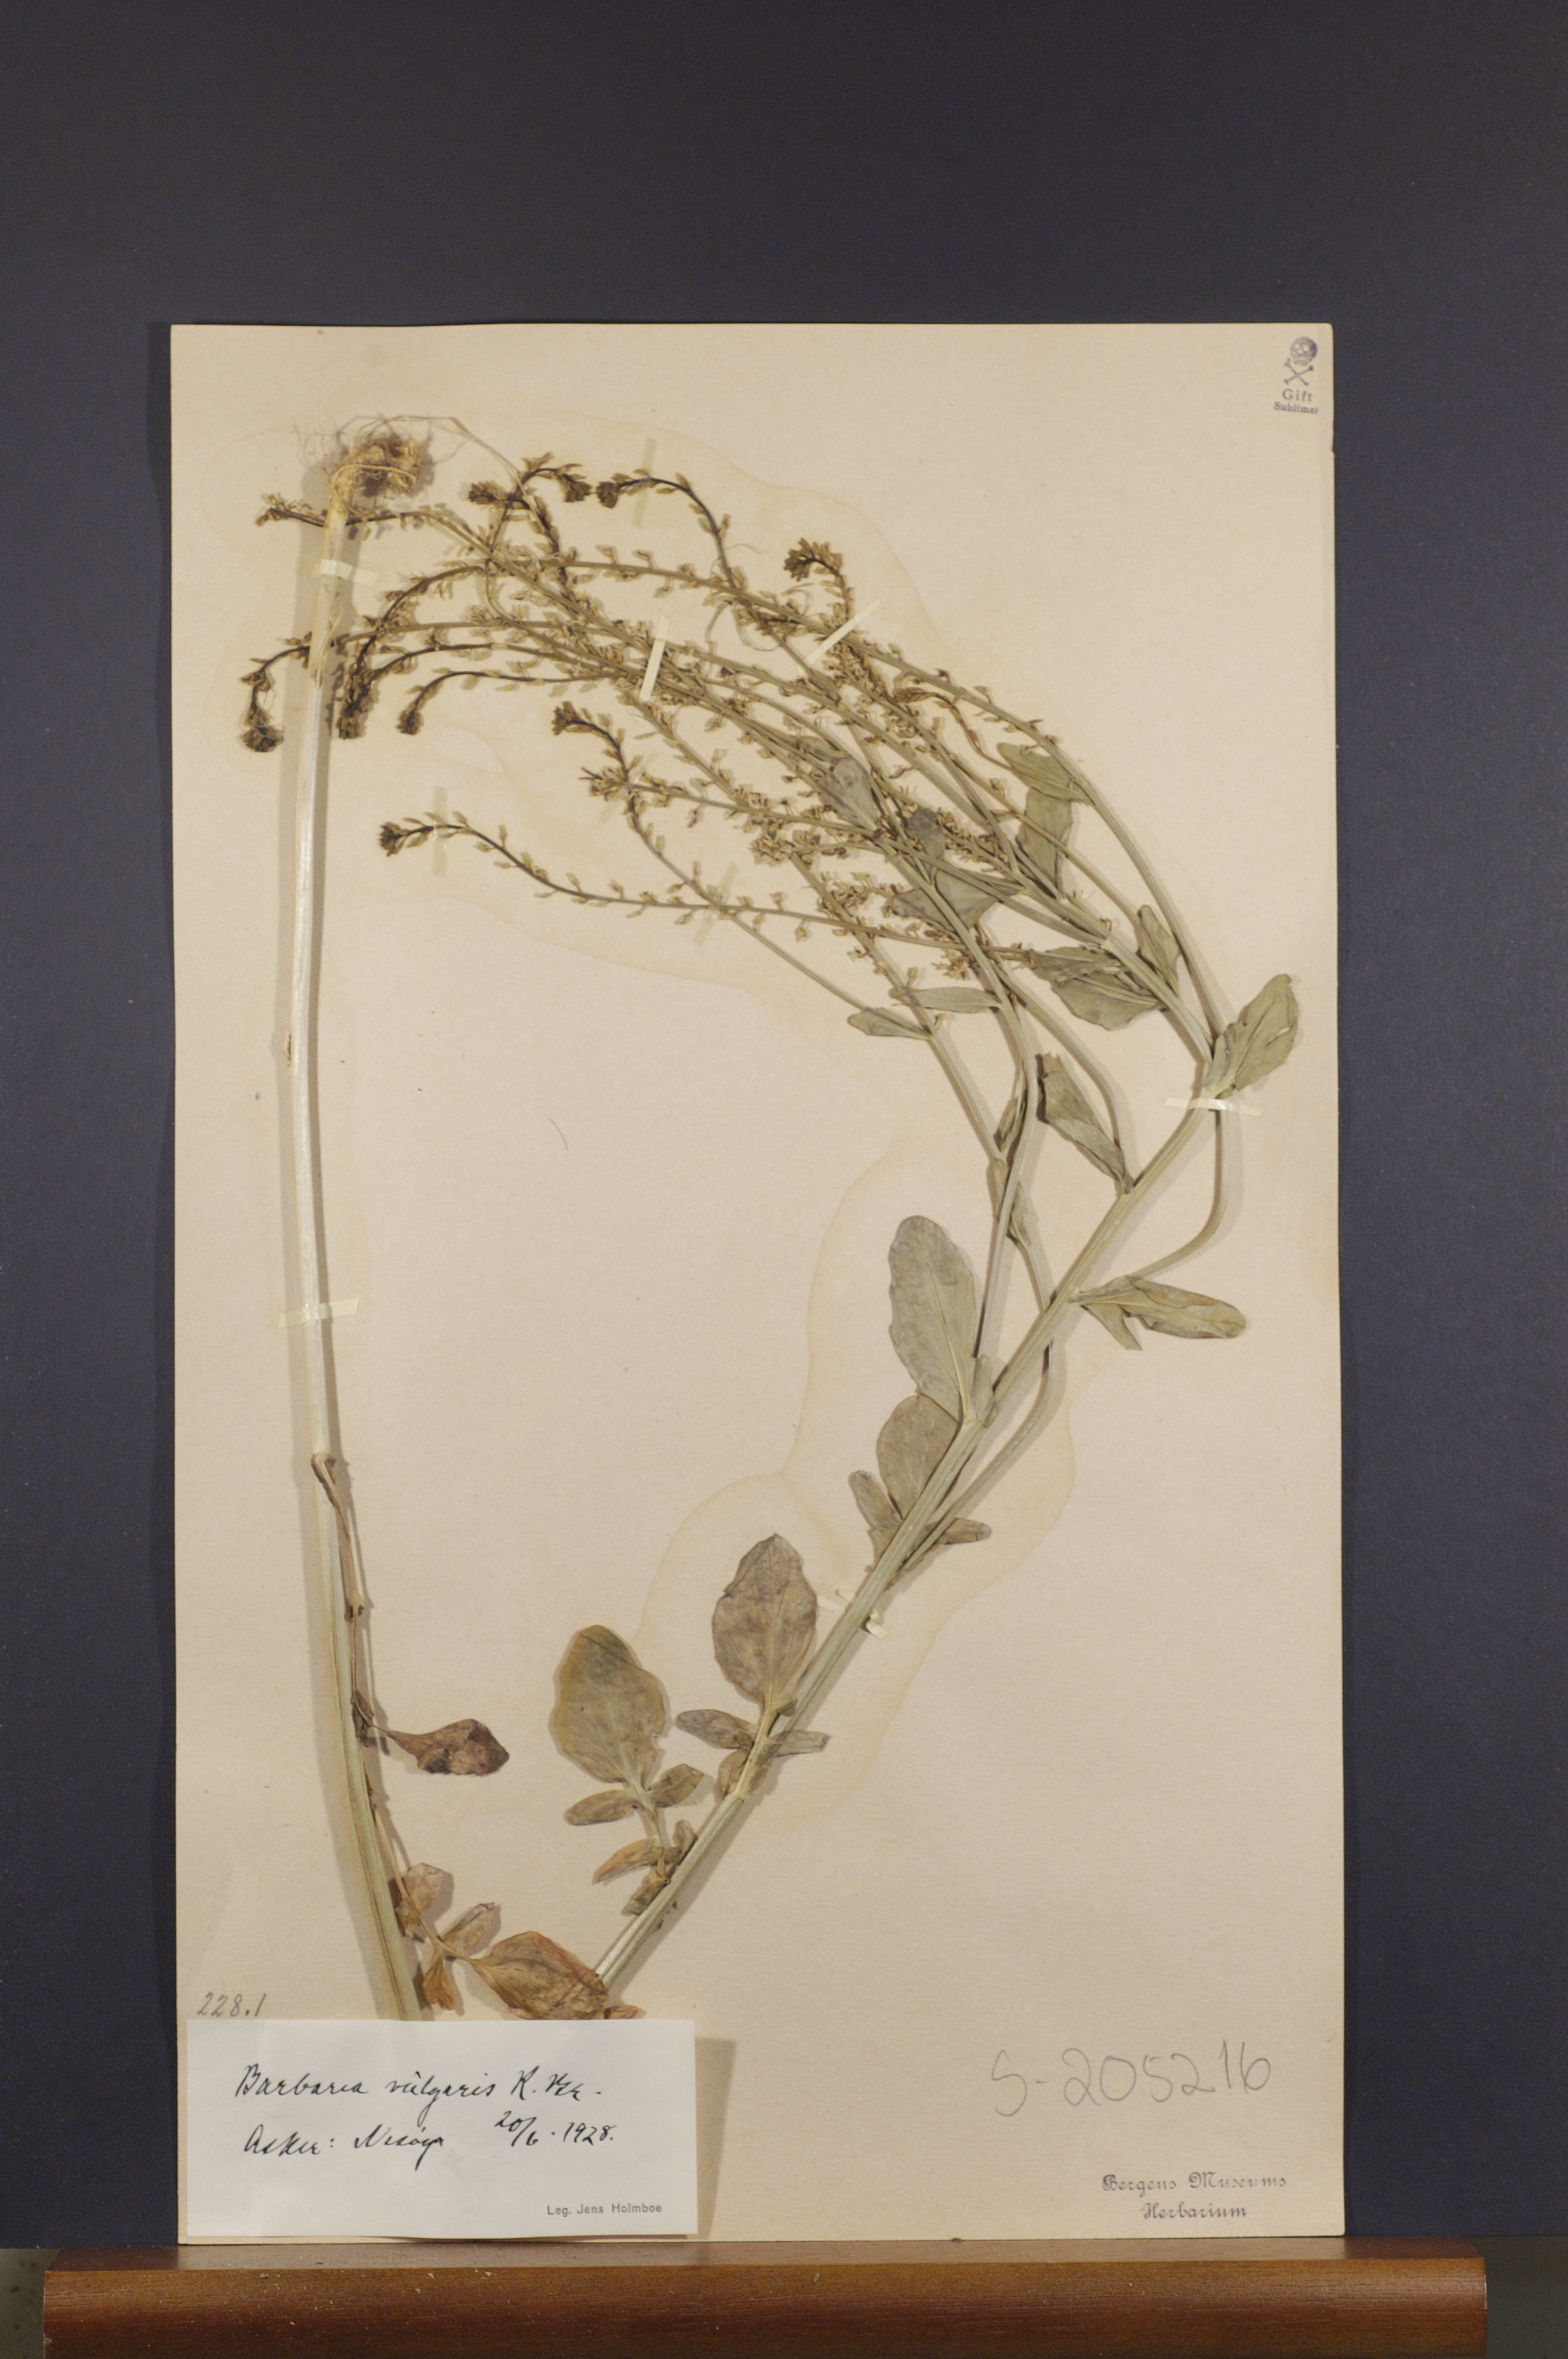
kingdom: Plantae
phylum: Tracheophyta
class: Magnoliopsida
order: Brassicales
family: Brassicaceae
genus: Barbarea
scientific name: Barbarea vulgaris
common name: Cressy-greens
